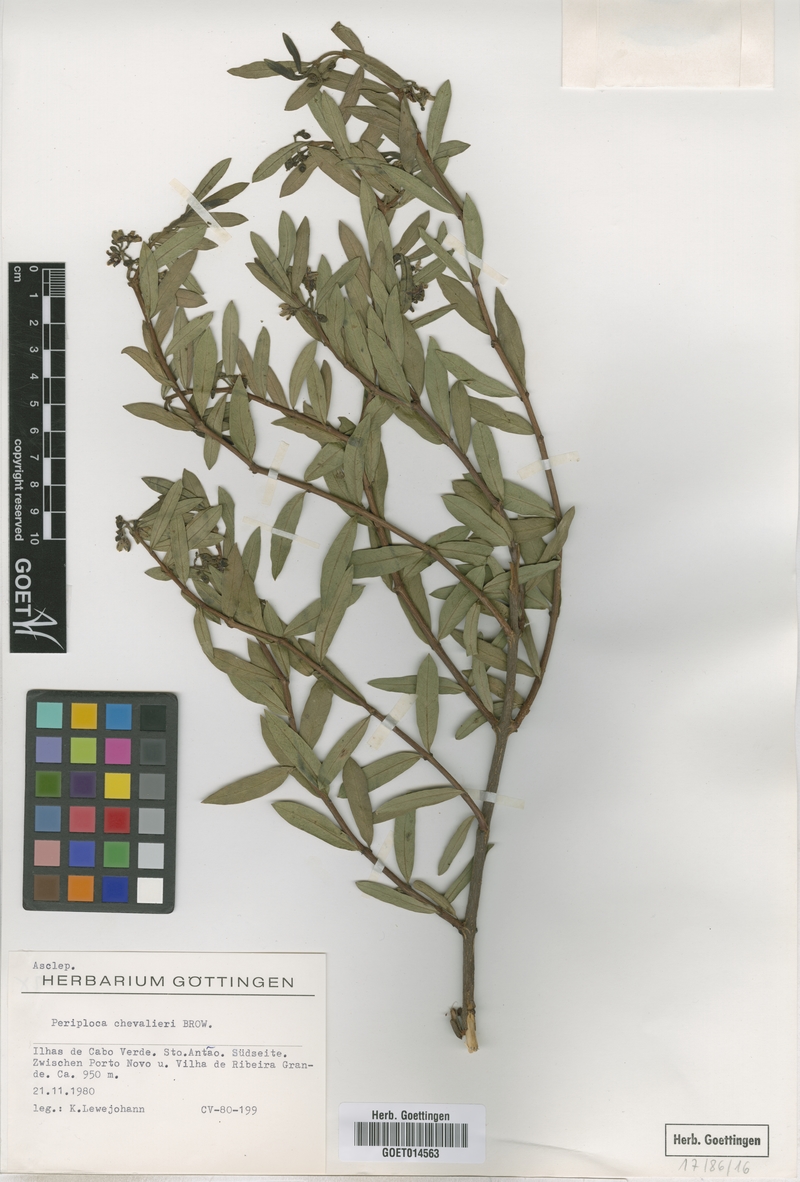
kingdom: Plantae
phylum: Tracheophyta
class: Magnoliopsida
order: Gentianales
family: Apocynaceae
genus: Periploca
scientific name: Periploca chevalieri
